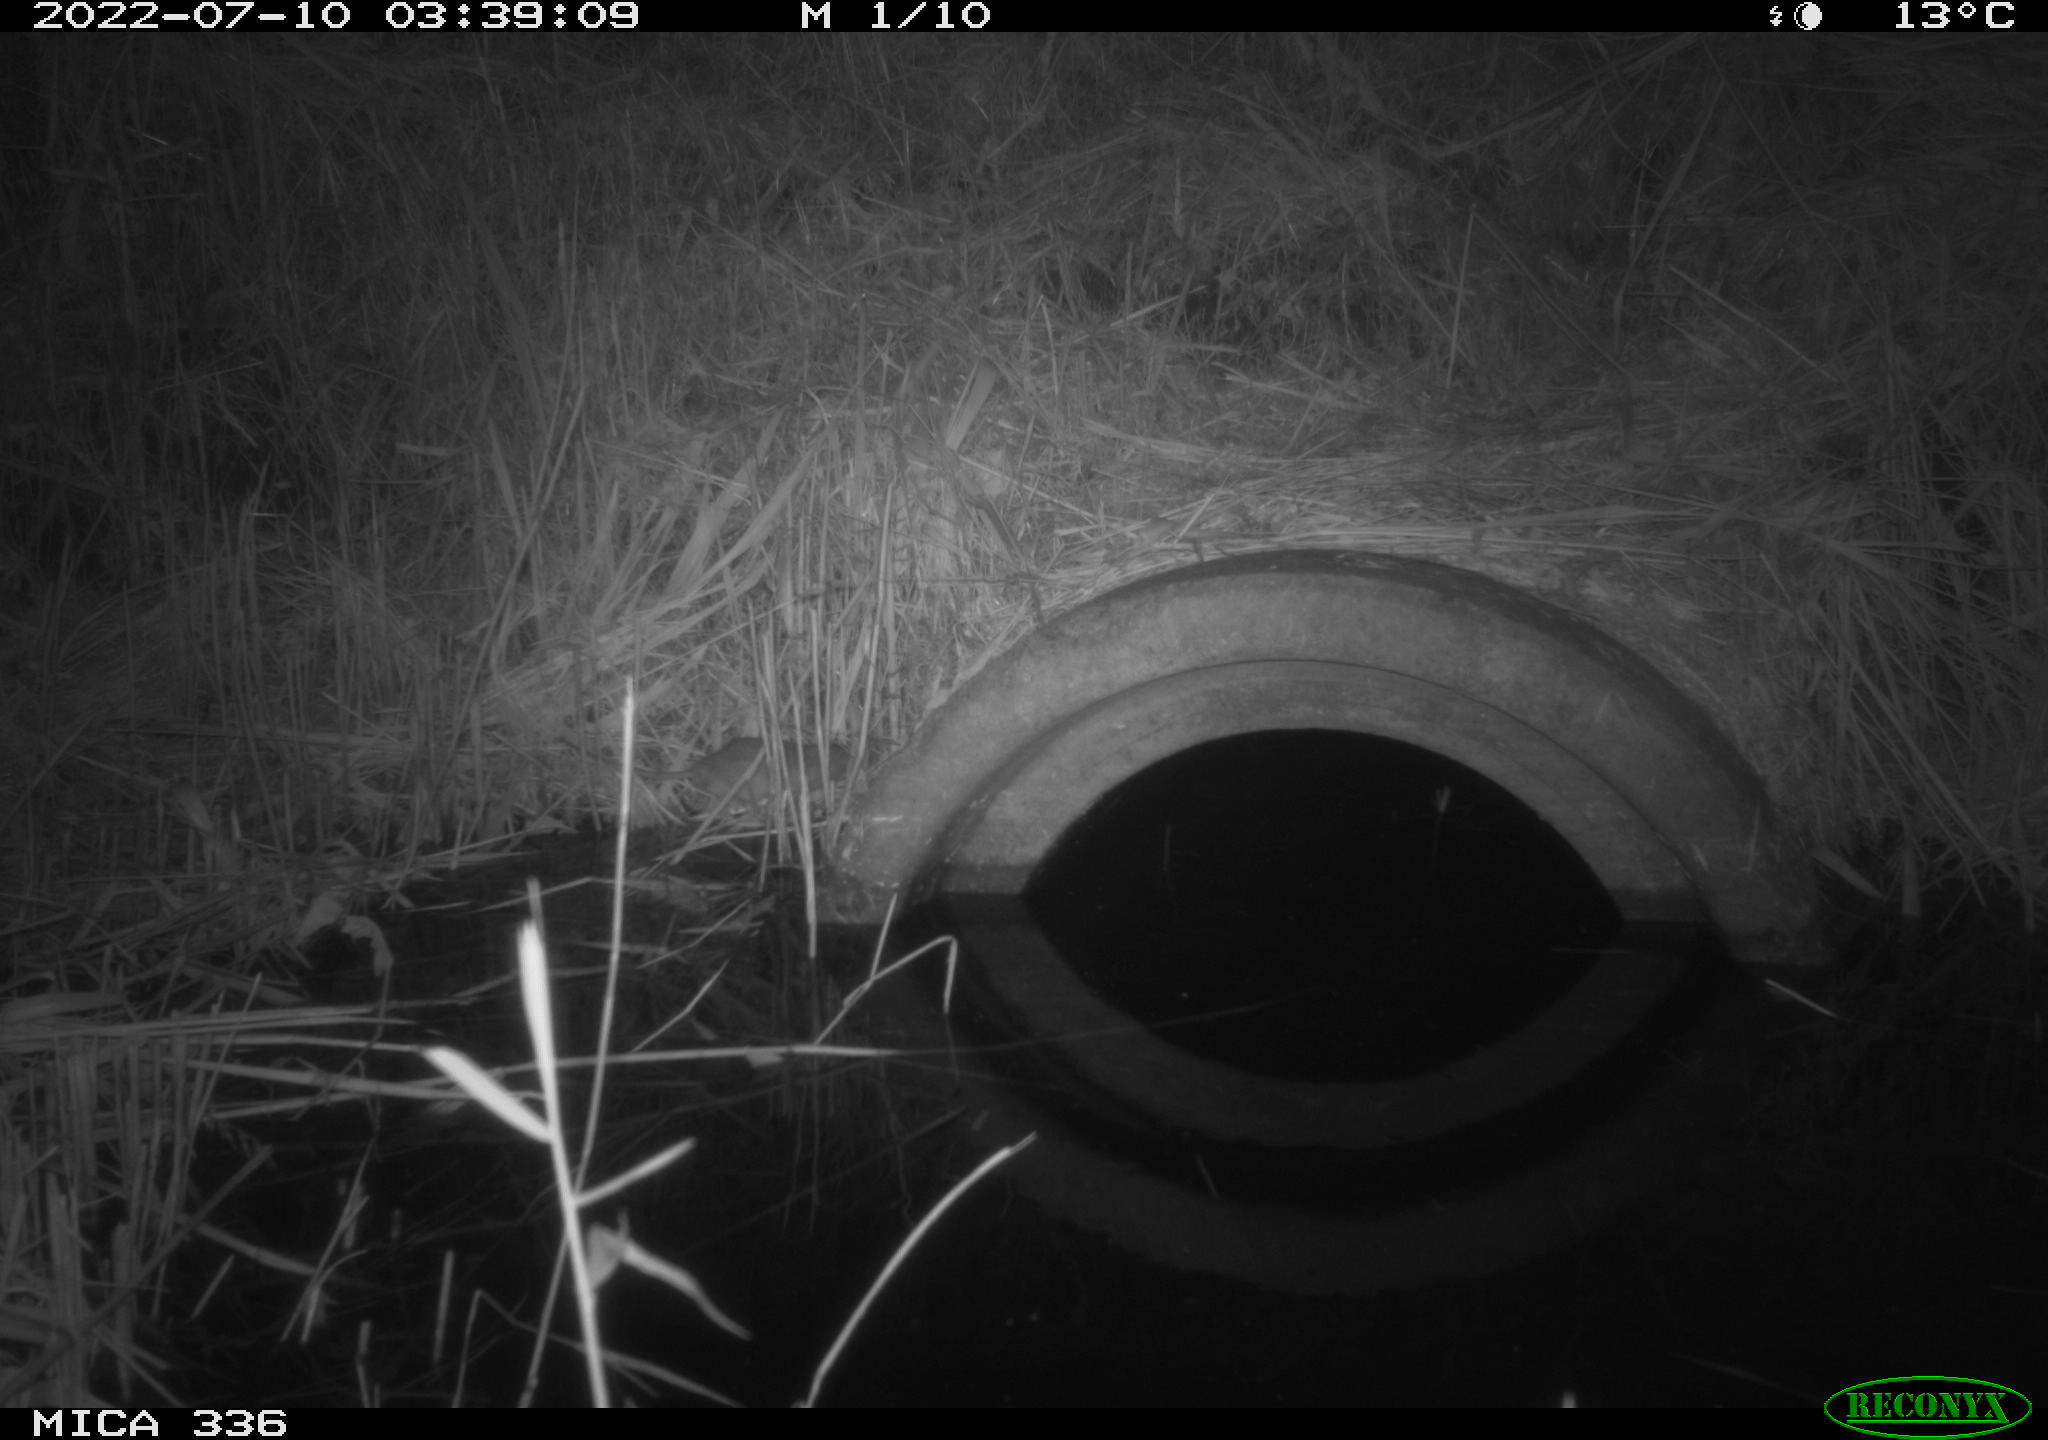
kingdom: Animalia
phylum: Chordata
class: Mammalia
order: Rodentia
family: Muridae
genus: Rattus
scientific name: Rattus norvegicus
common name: Brown rat
